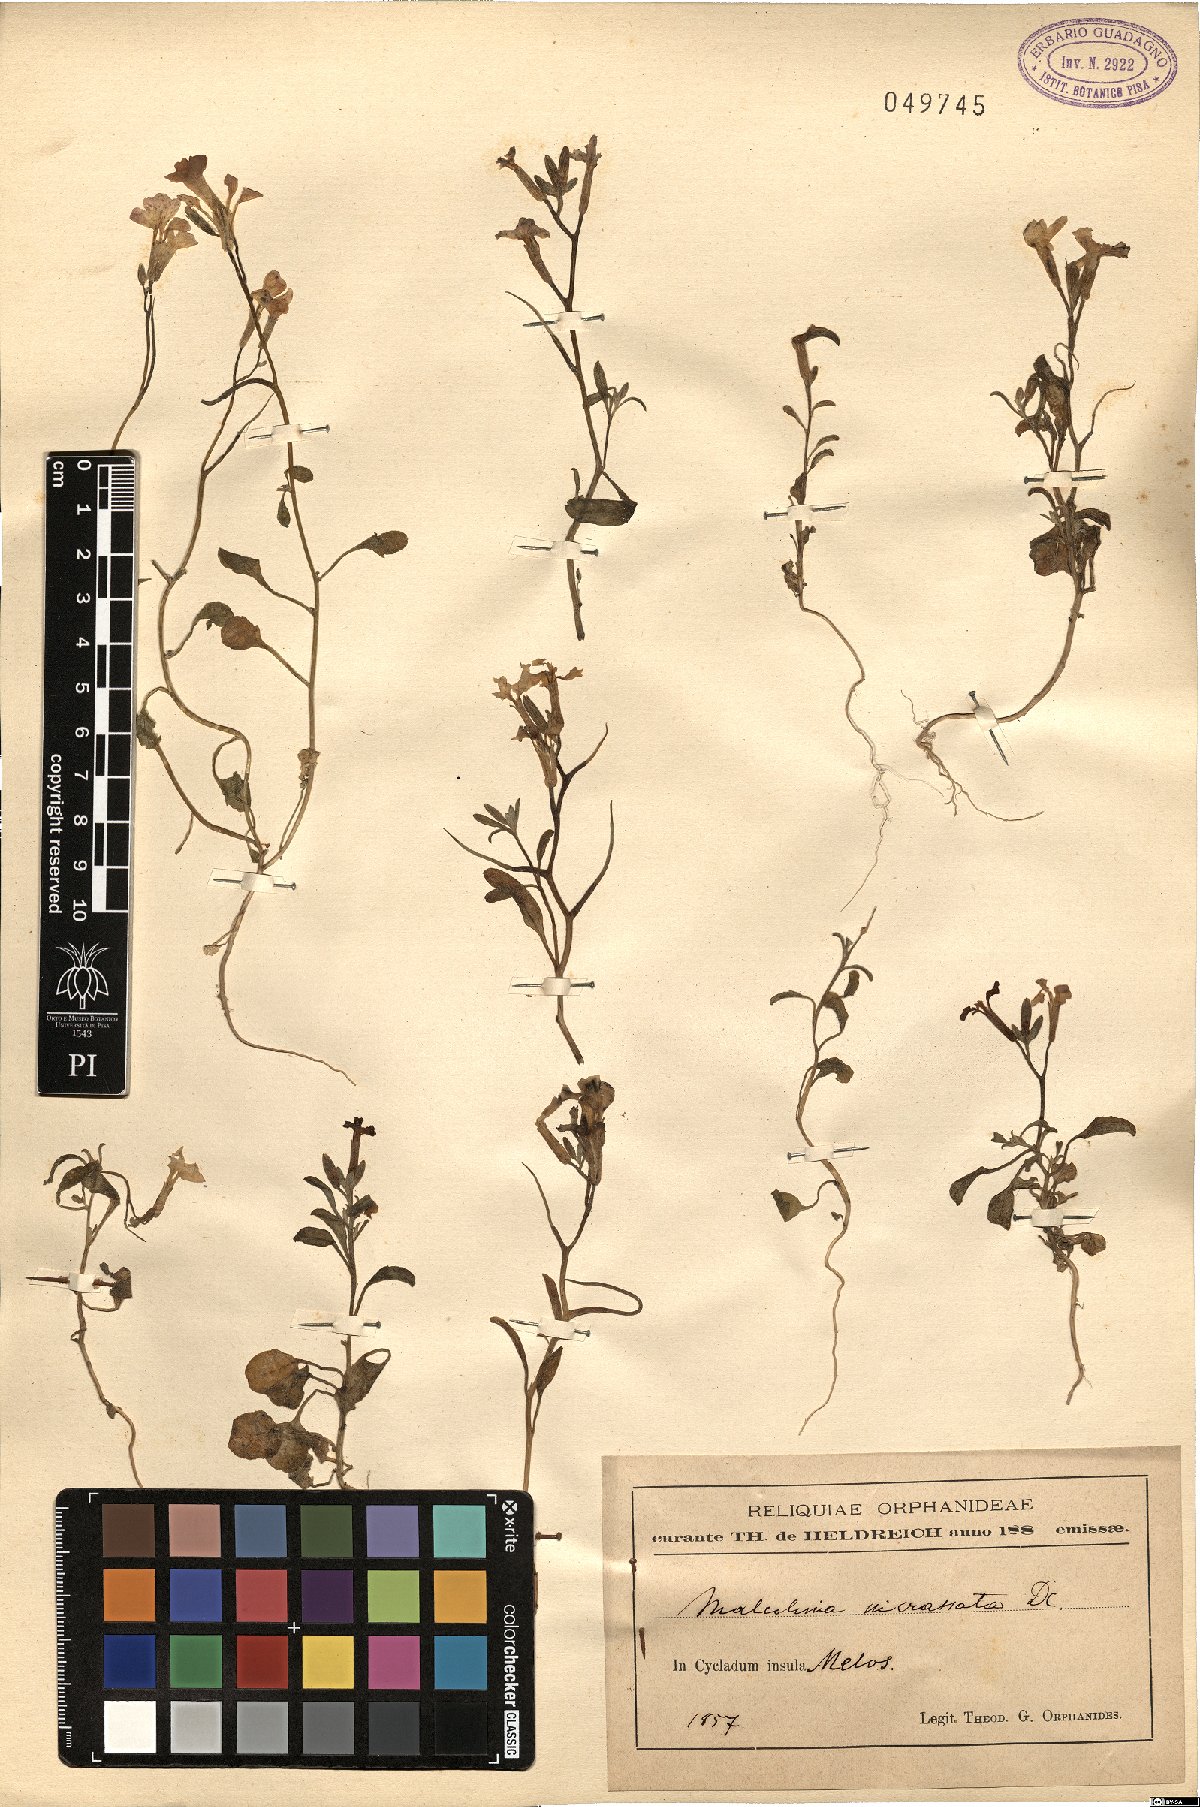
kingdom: Plantae
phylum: Tracheophyta
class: Magnoliopsida
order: Brassicales
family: Brassicaceae
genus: Malcolmia
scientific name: Malcolmia chia
